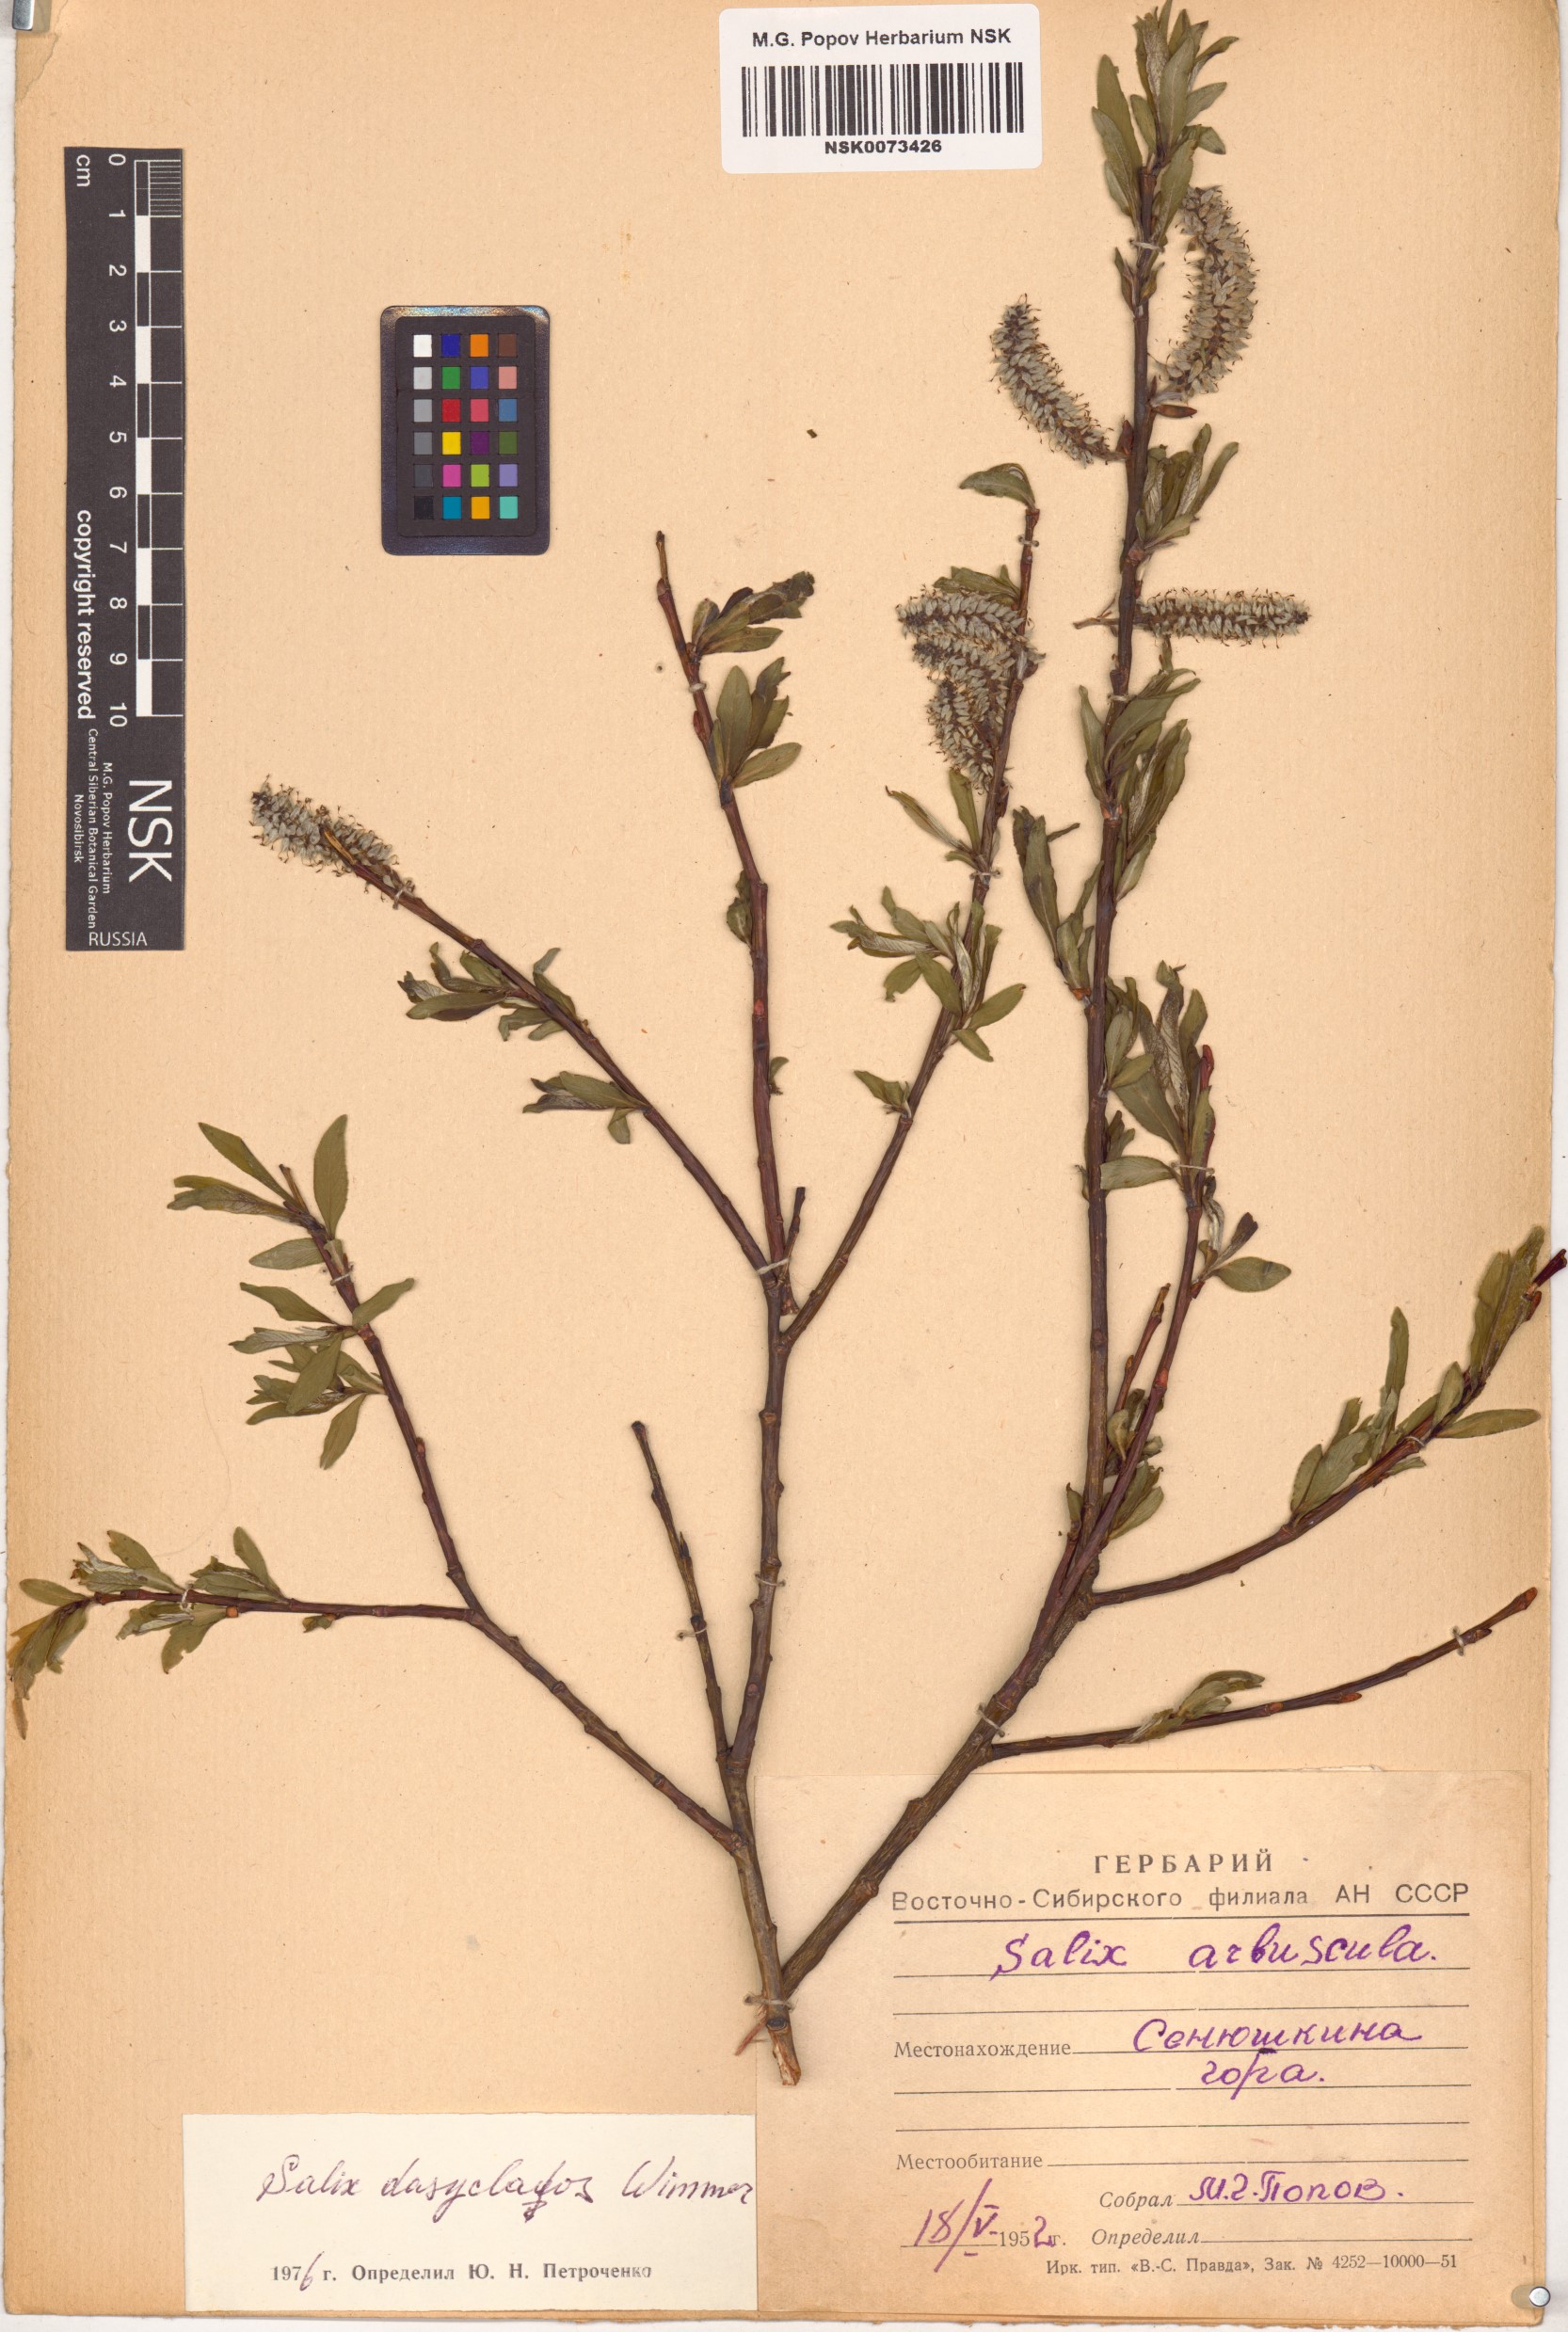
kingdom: Plantae
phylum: Tracheophyta
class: Magnoliopsida
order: Malpighiales
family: Salicaceae
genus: Salix
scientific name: Salix gmelinii
